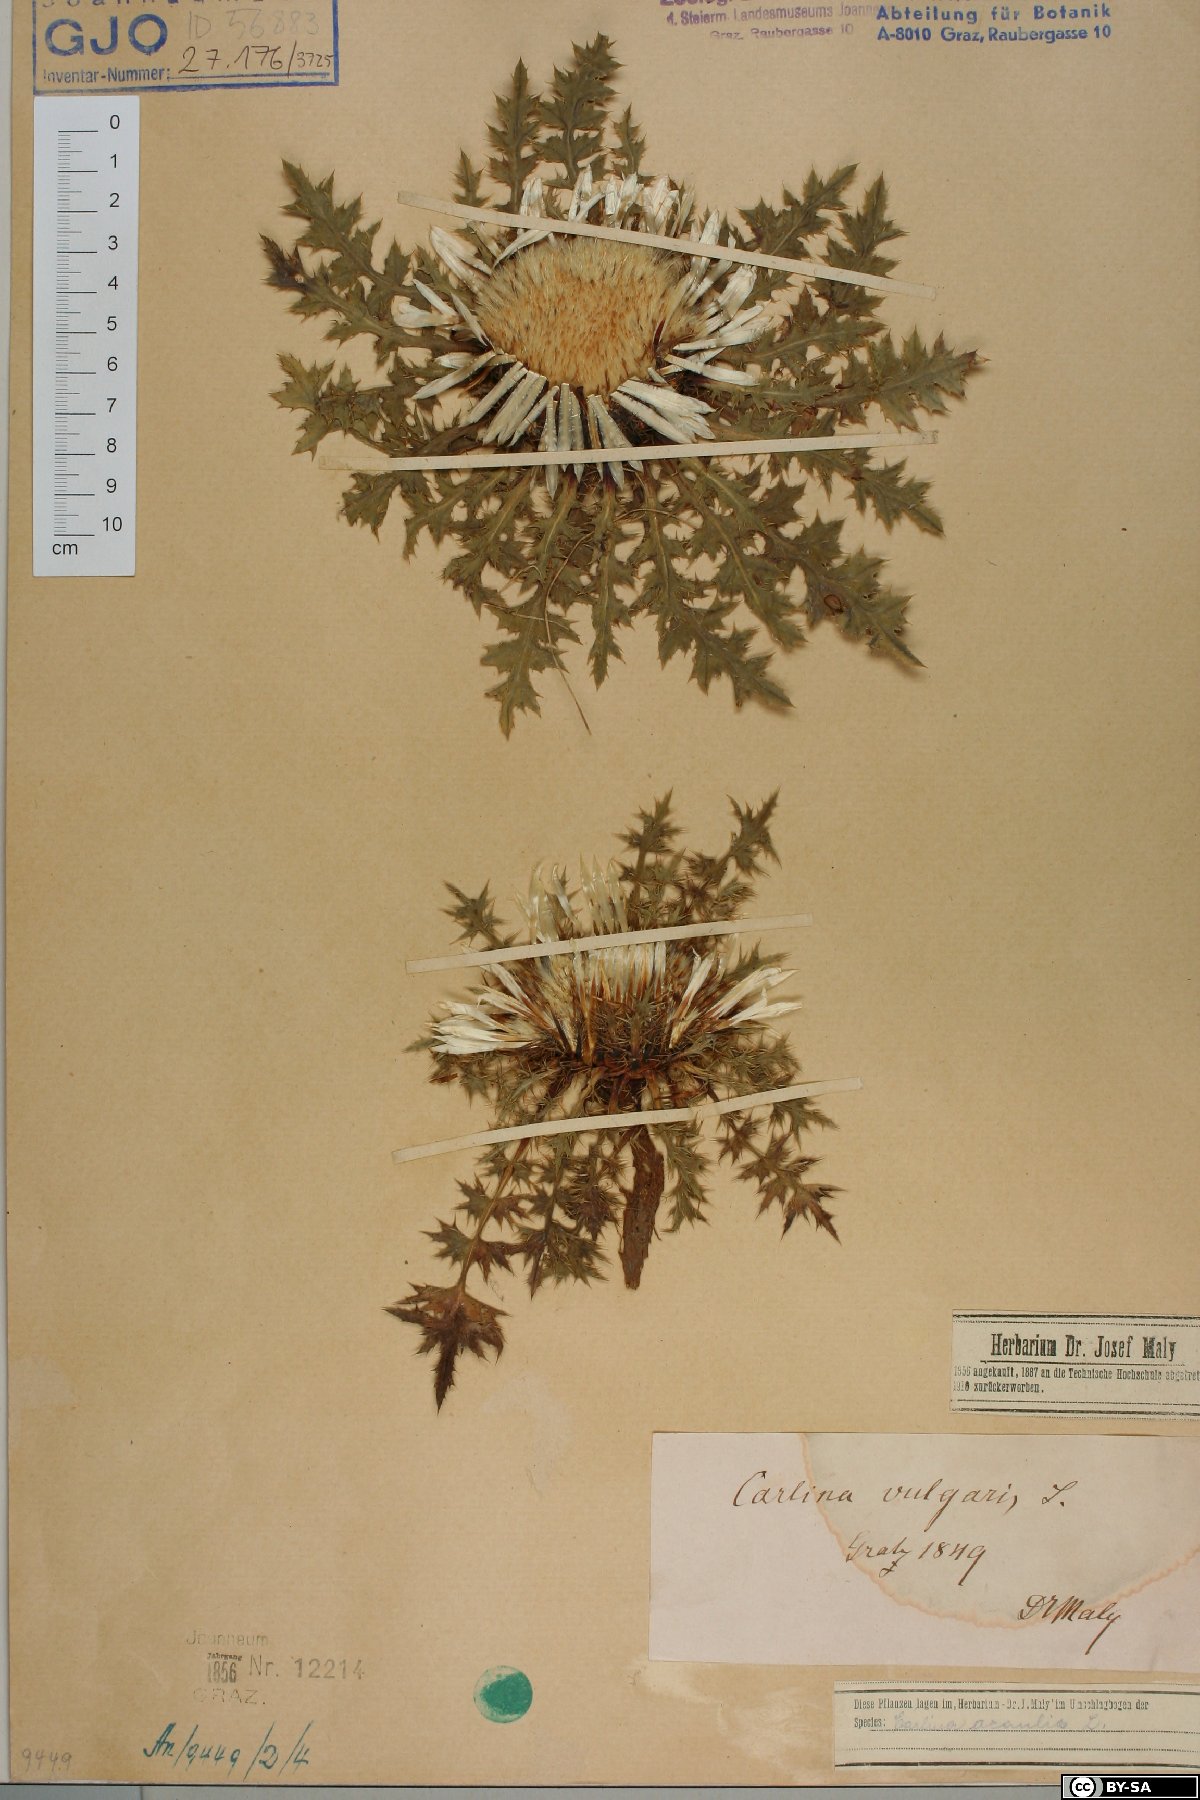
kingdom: Plantae
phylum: Tracheophyta
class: Magnoliopsida
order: Asterales
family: Asteraceae
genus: Carlina
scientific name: Carlina vulgaris
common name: Carline thistle
